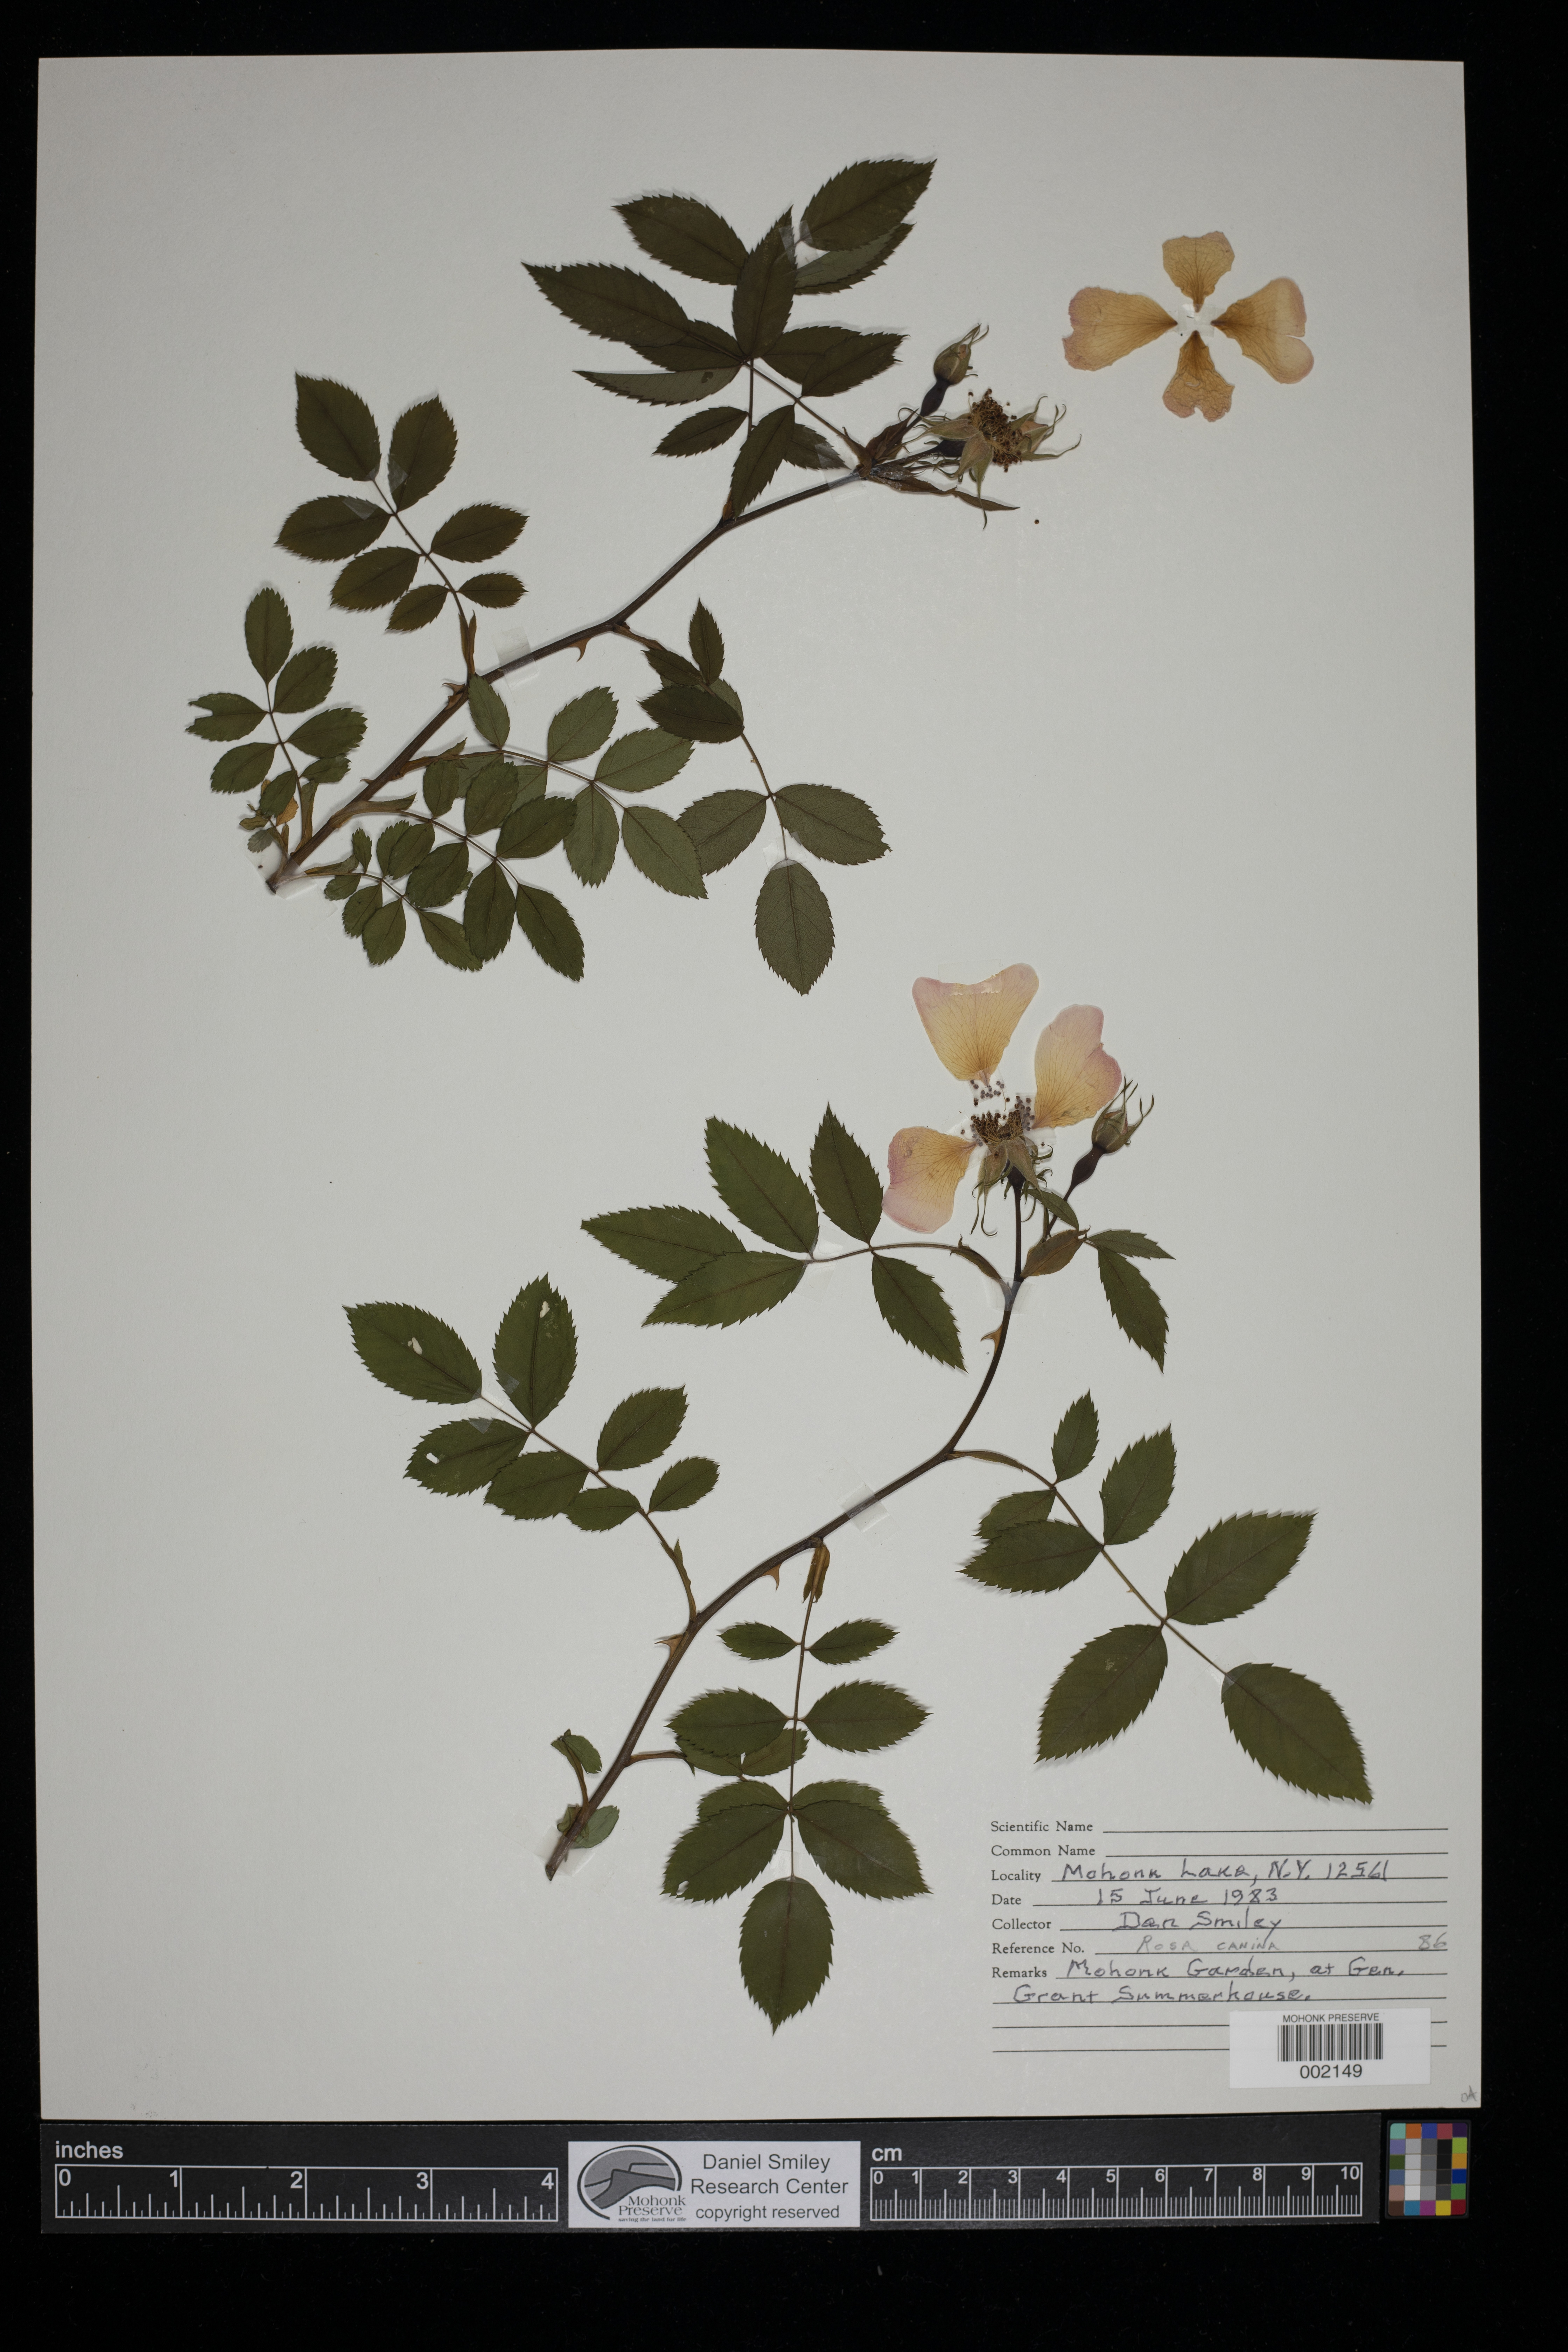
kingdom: Plantae
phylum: Tracheophyta
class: Magnoliopsida
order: Rosales
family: Rosaceae
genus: Rosa
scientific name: Rosa canina
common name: Dog rose
